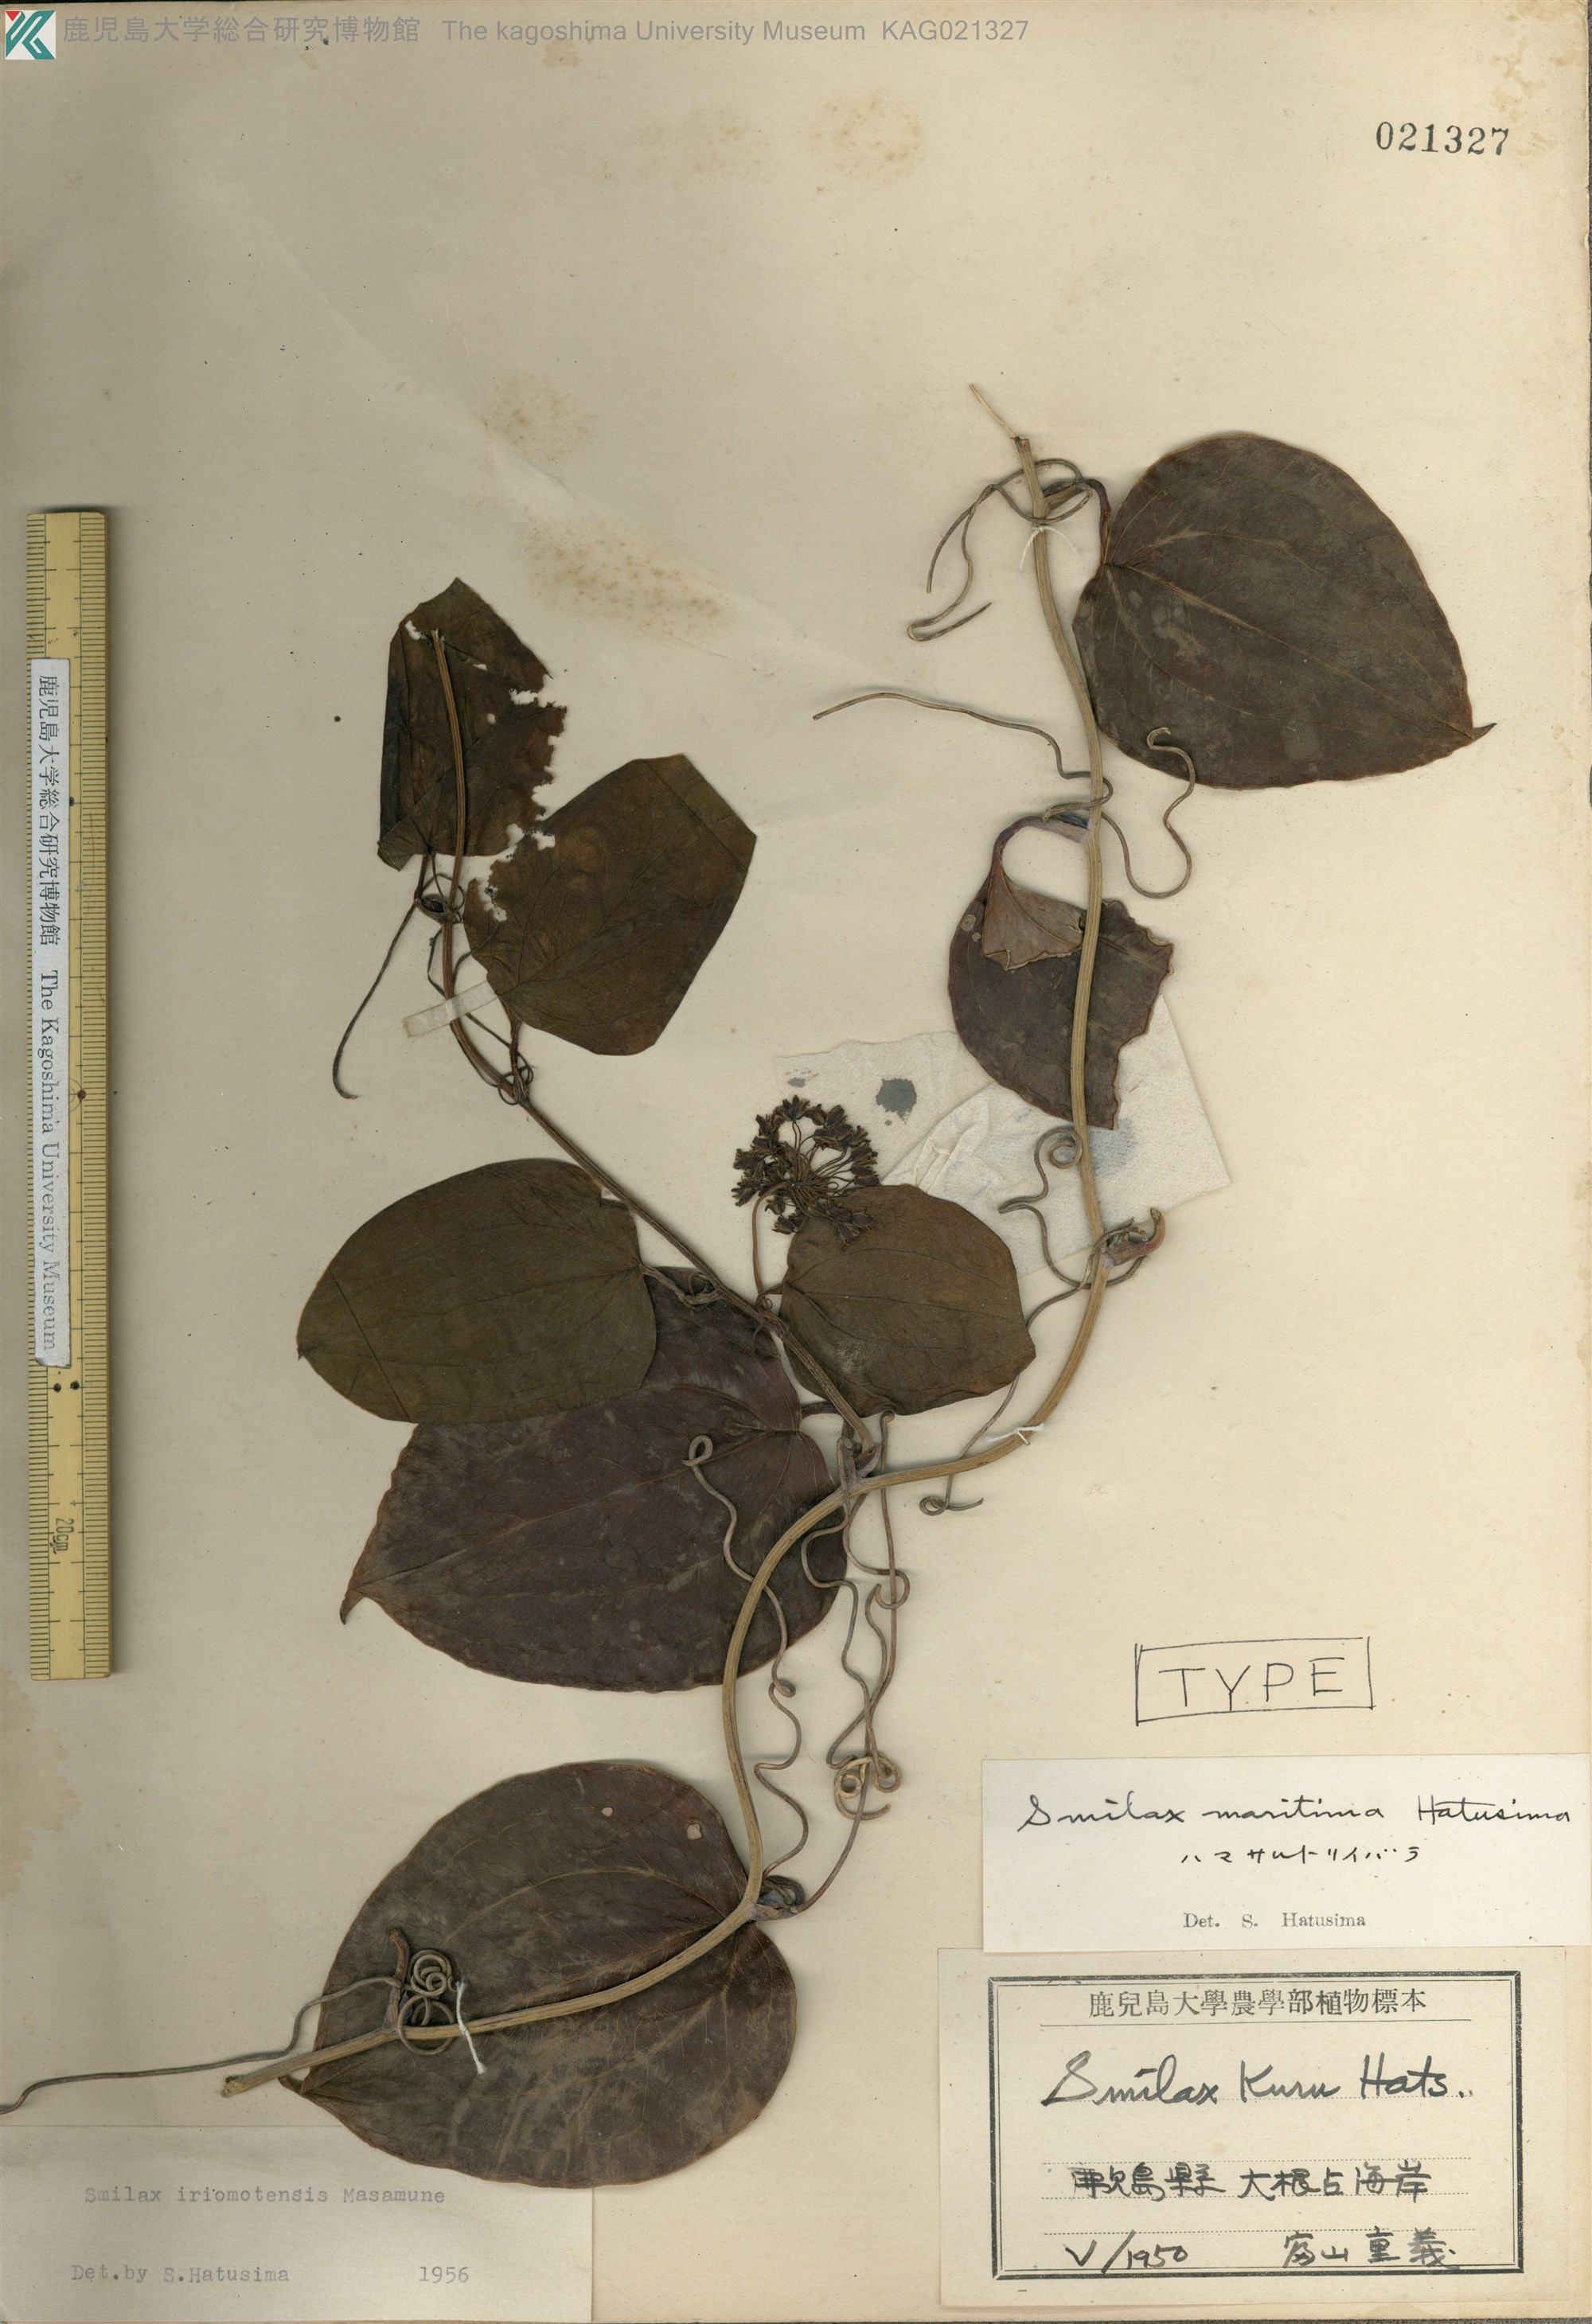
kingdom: Plantae
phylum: Tracheophyta
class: Liliopsida
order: Liliales
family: Smilacaceae
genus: Smilax
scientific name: Smilax sebeana
